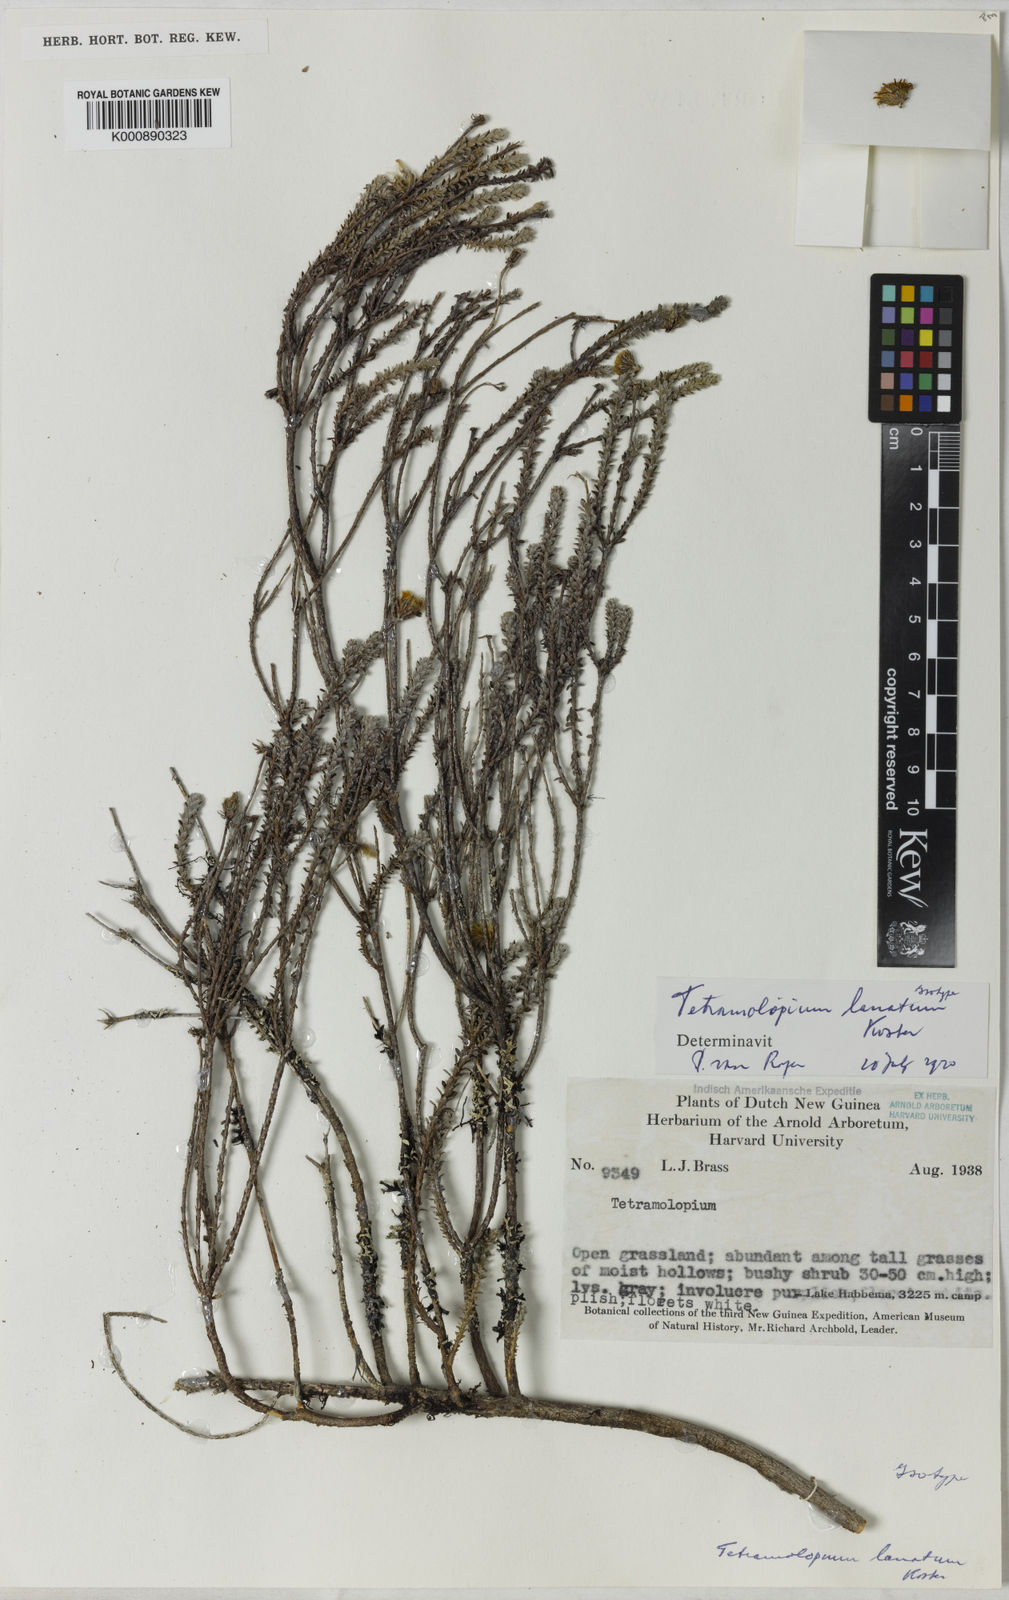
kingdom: Plantae
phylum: Tracheophyta
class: Magnoliopsida
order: Asterales
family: Asteraceae
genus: Tetramolopium
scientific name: Tetramolopium lanatum
